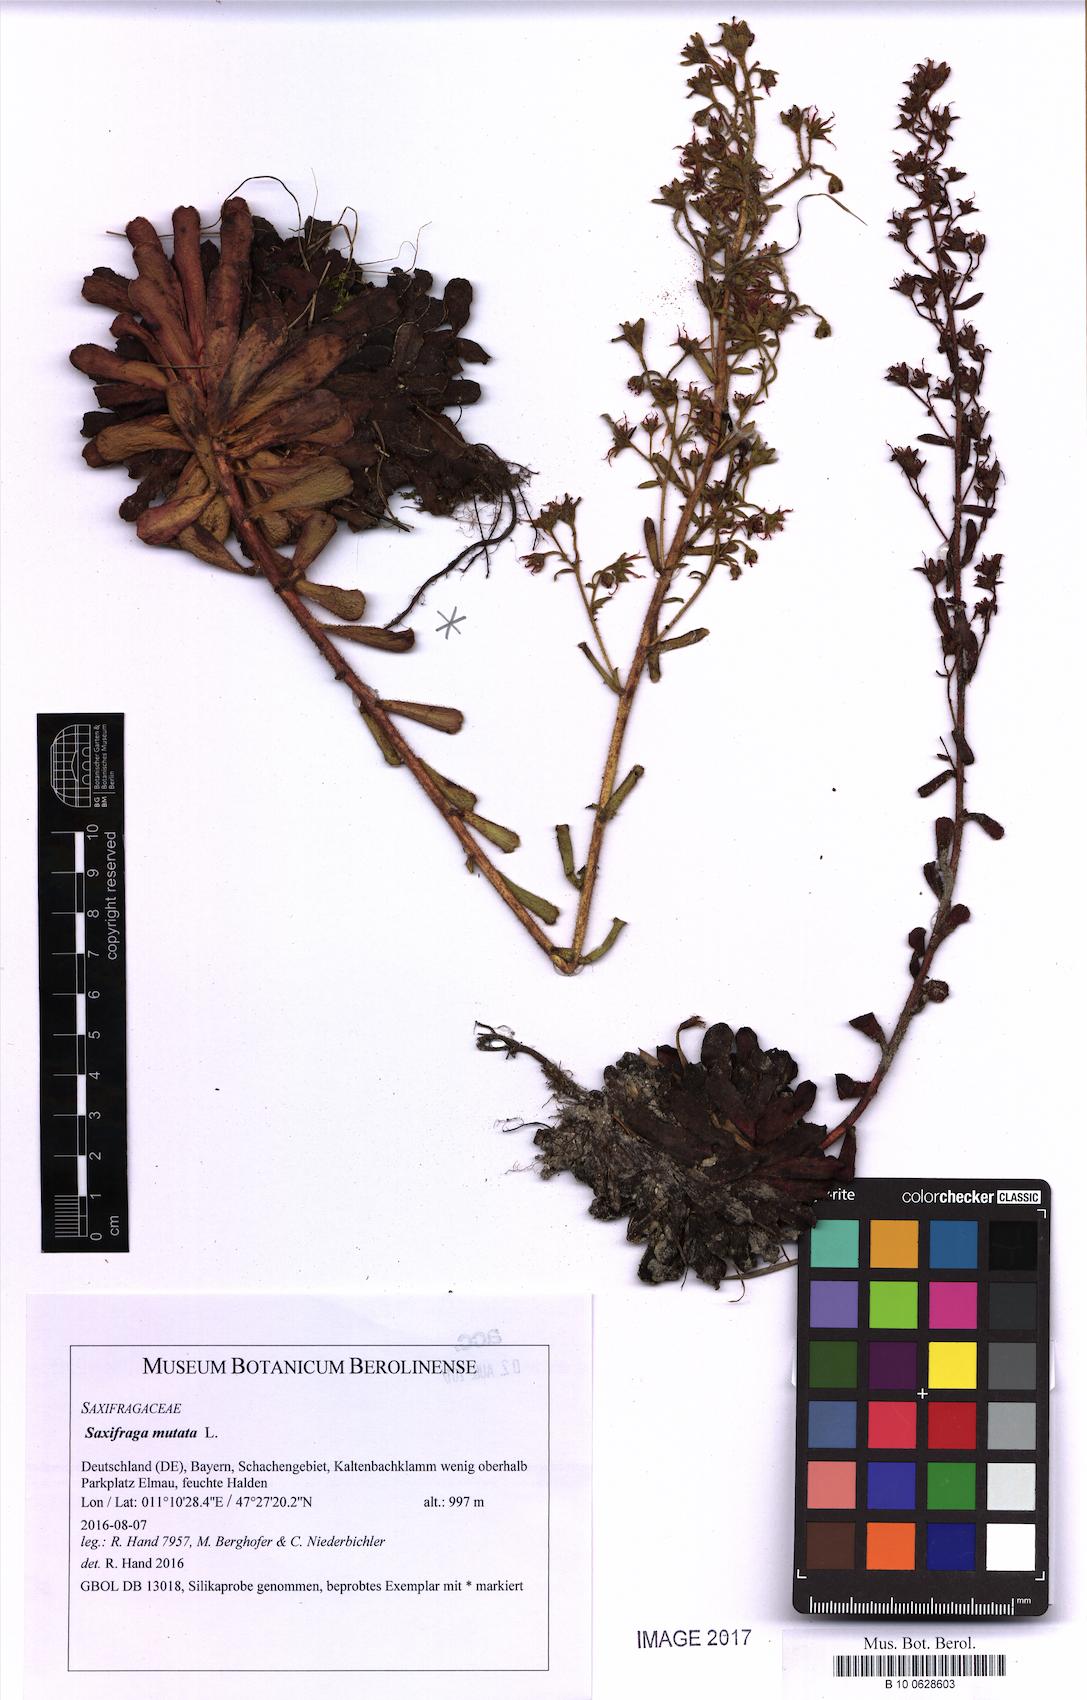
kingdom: Plantae
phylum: Tracheophyta
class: Magnoliopsida
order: Saxifragales
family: Saxifragaceae
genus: Saxifraga
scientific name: Saxifraga mutata
